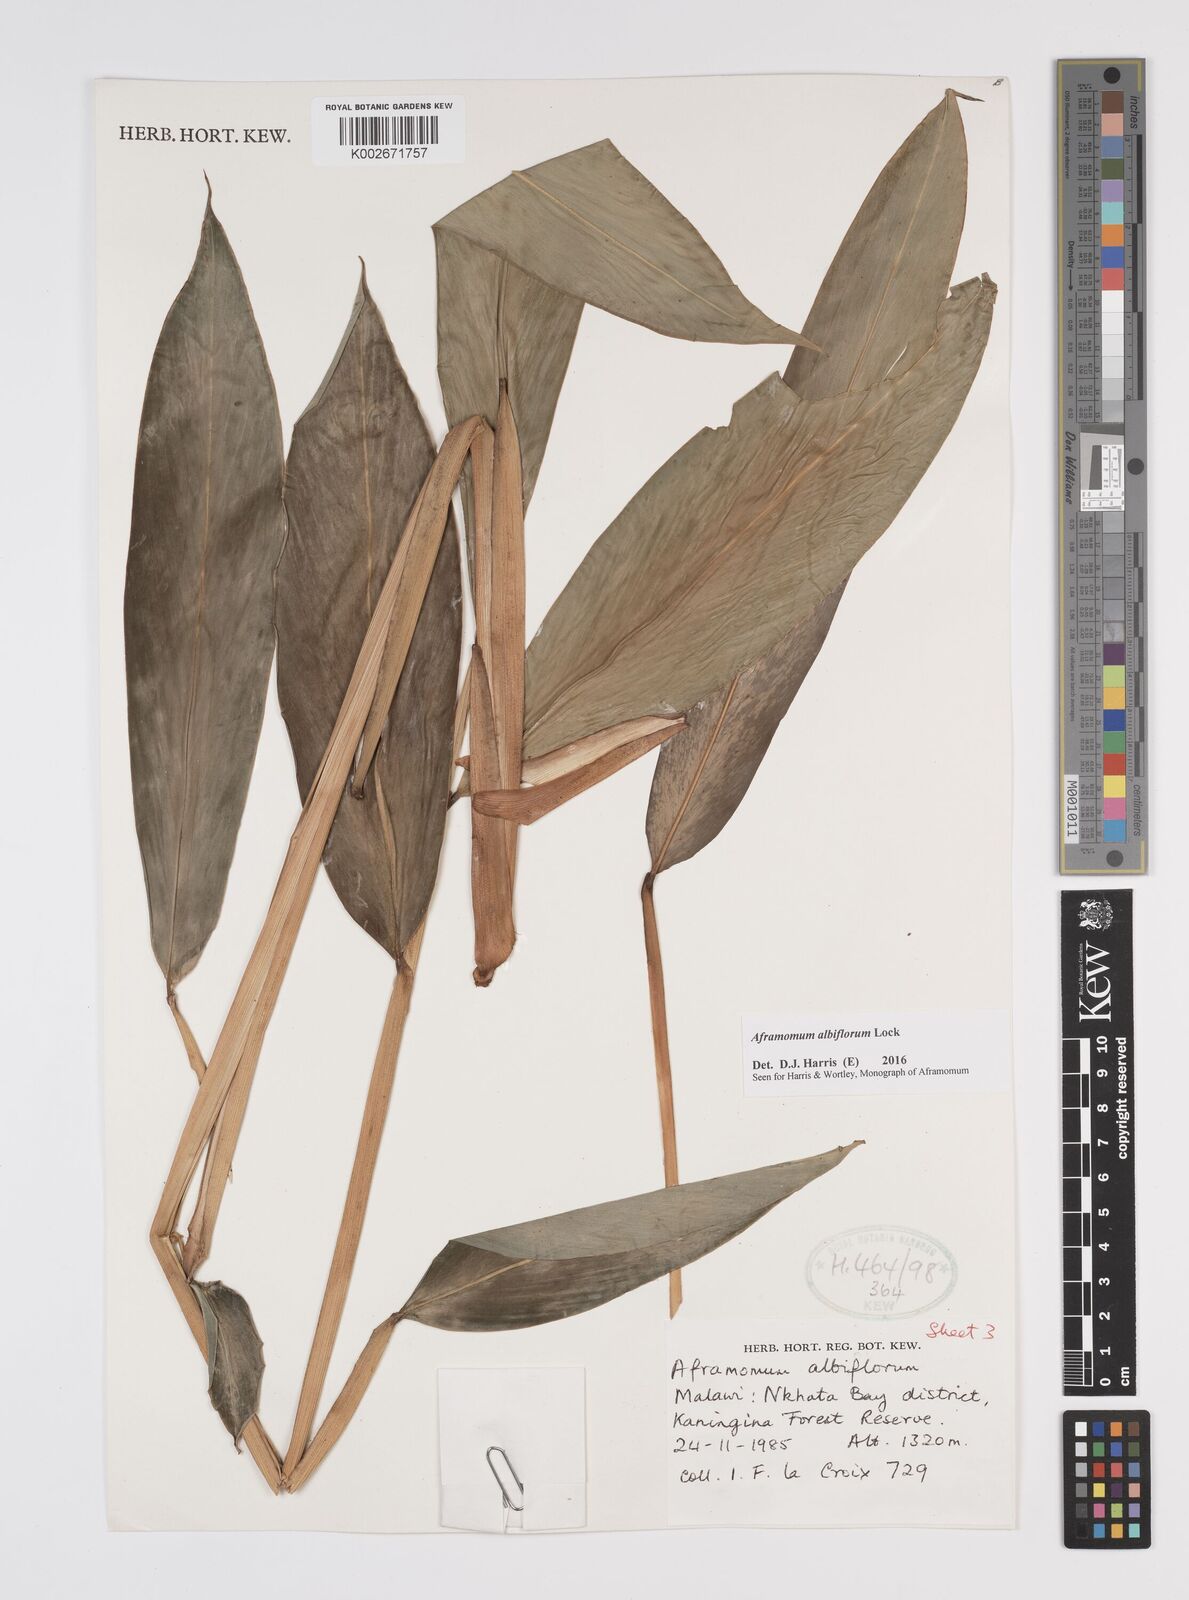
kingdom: Plantae
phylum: Tracheophyta
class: Liliopsida
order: Zingiberales
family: Zingiberaceae
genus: Aframomum
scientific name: Aframomum albiflorum
